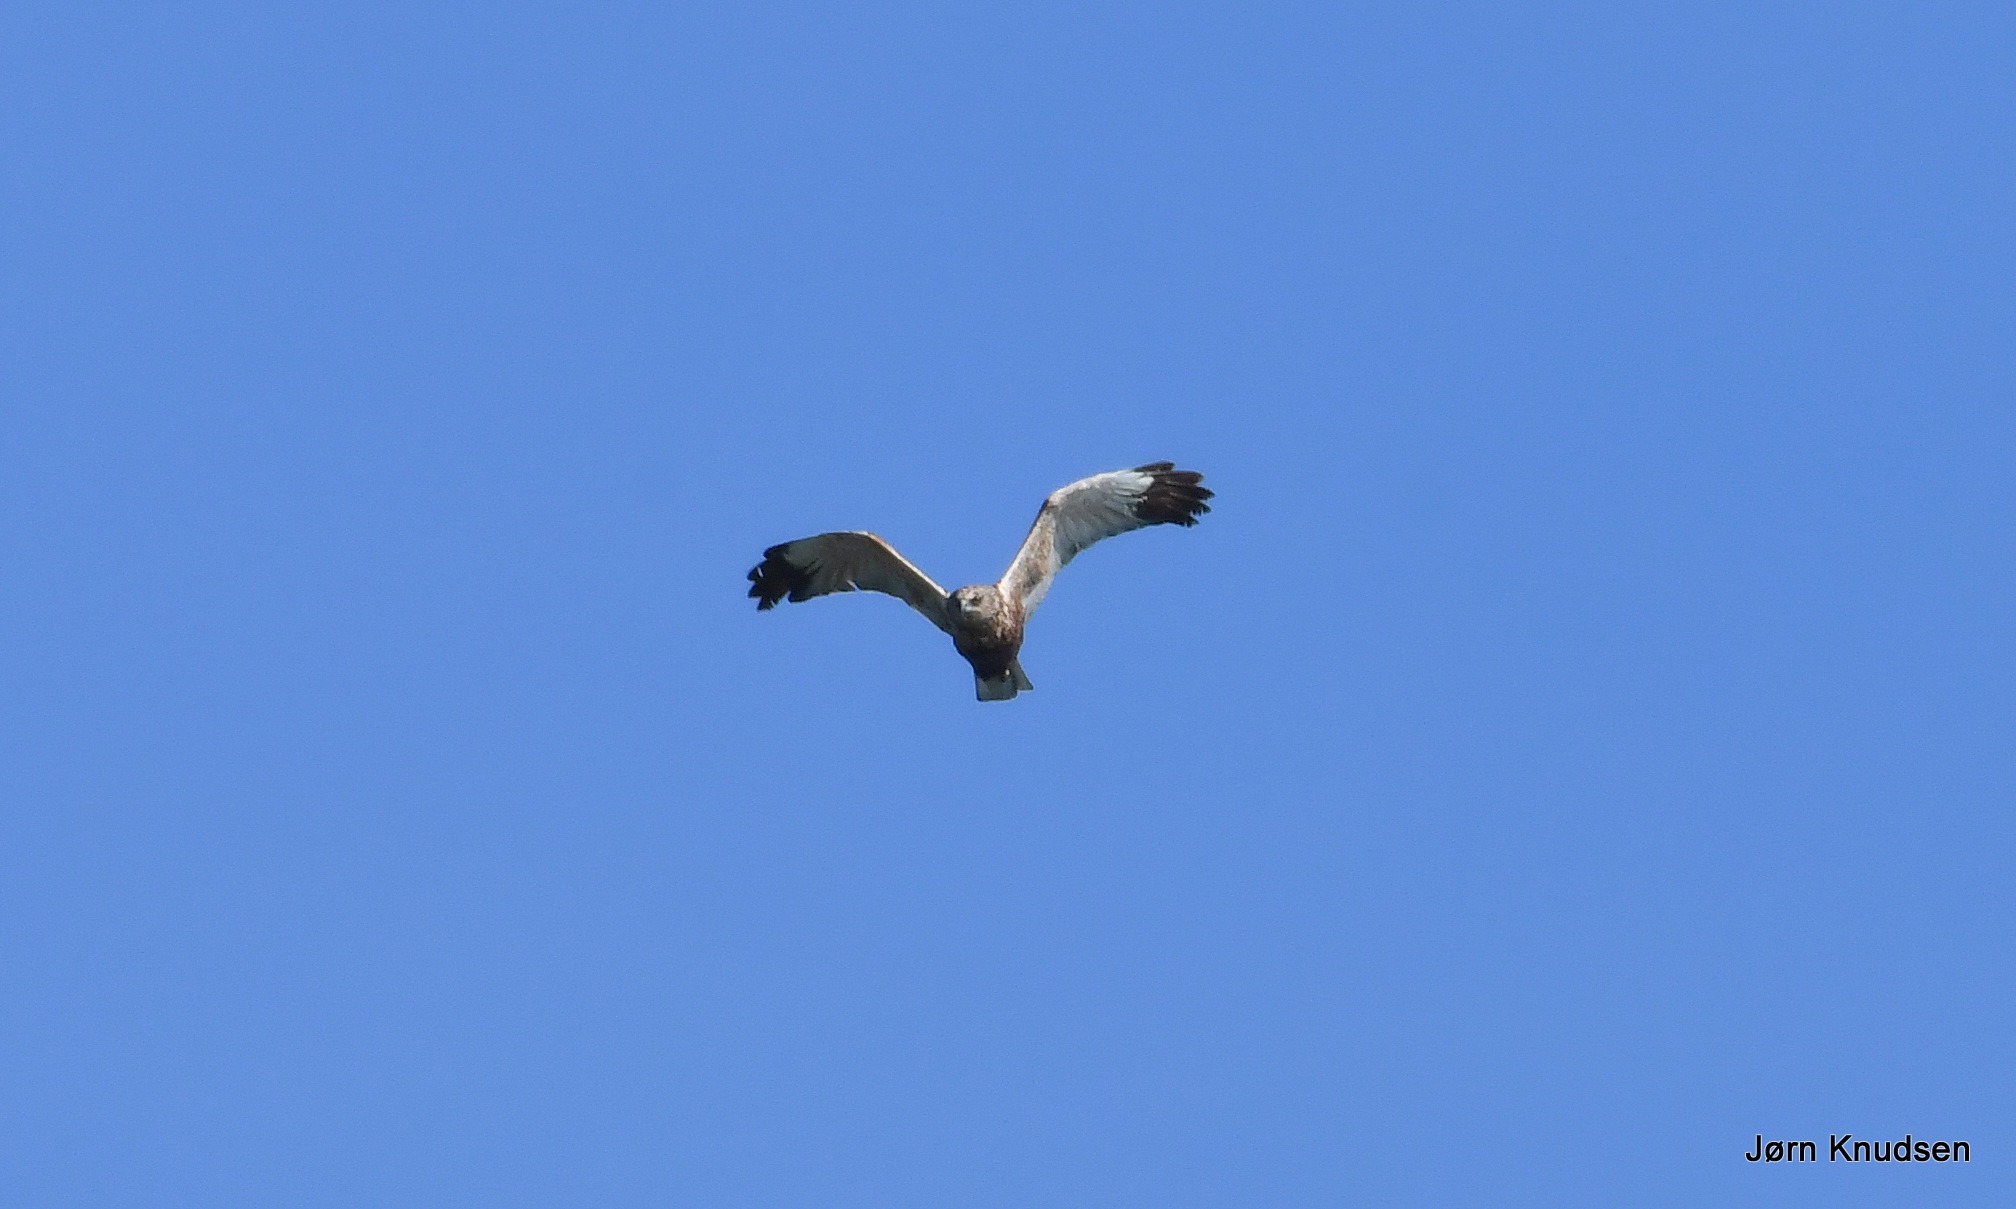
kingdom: Animalia
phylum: Chordata
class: Aves
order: Accipitriformes
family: Accipitridae
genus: Circus
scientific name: Circus aeruginosus
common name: Rørhøg
